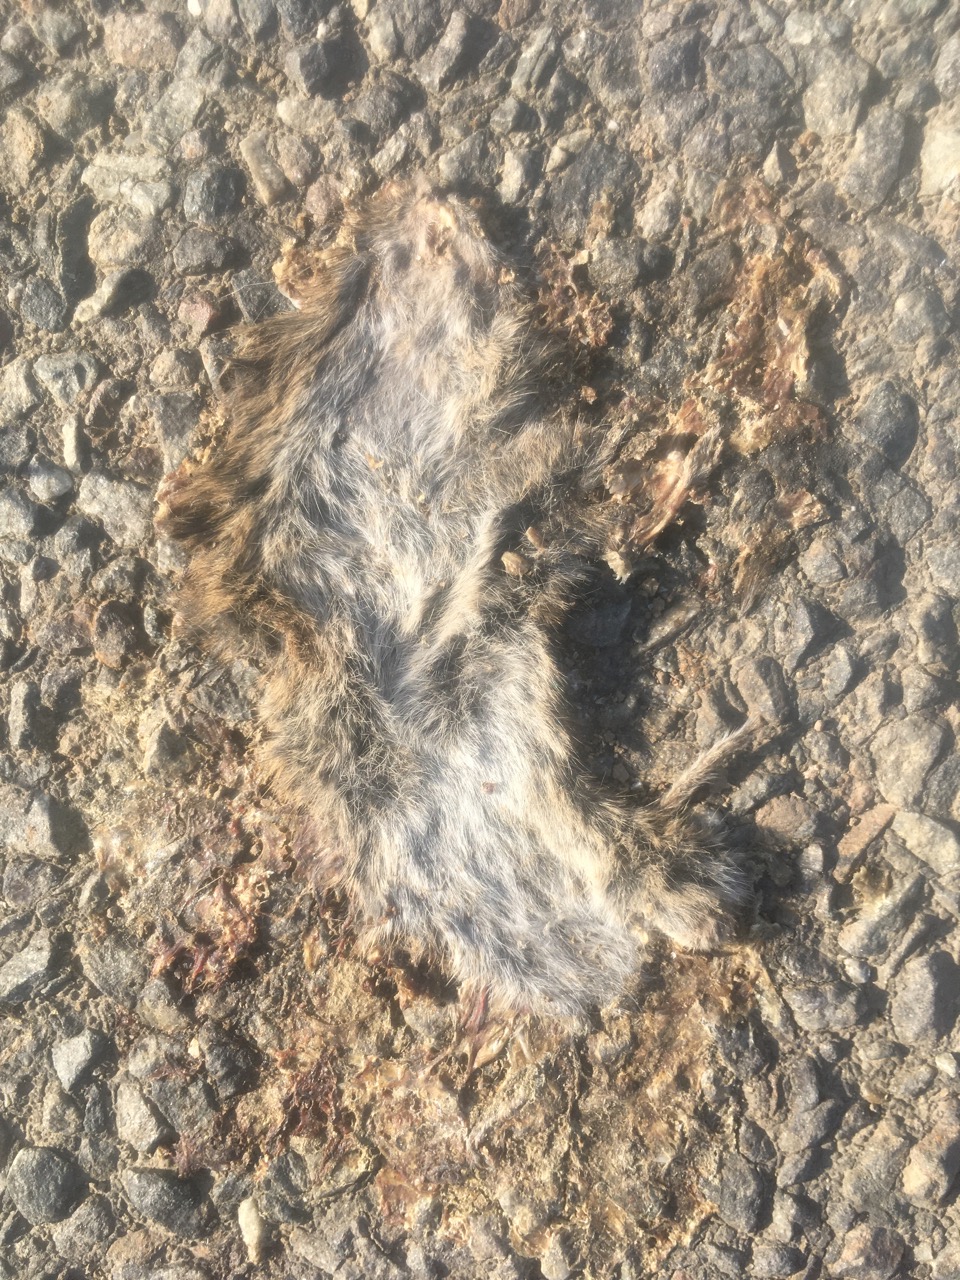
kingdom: Animalia
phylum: Chordata
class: Mammalia
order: Rodentia
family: Cricetidae
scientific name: Cricetidae
